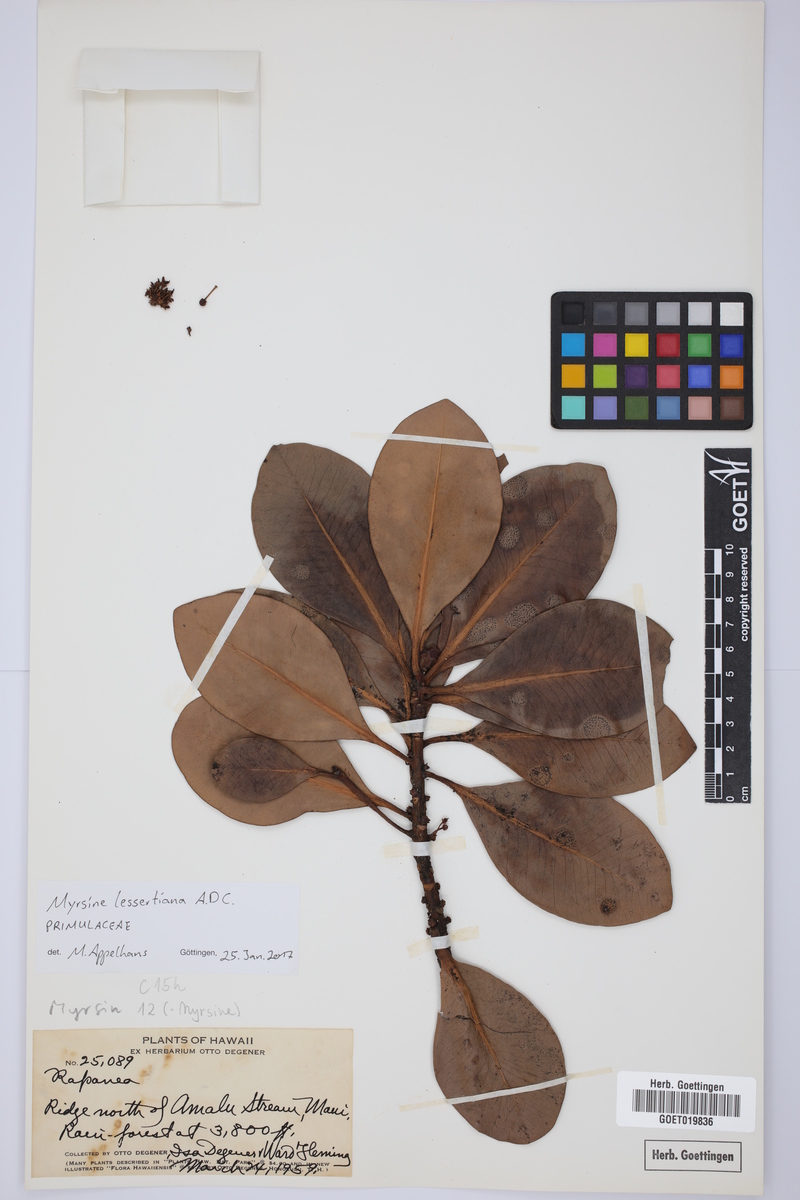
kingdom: Plantae
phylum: Tracheophyta
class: Magnoliopsida
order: Ericales
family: Primulaceae
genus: Myrsine
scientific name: Myrsine lessertiana
